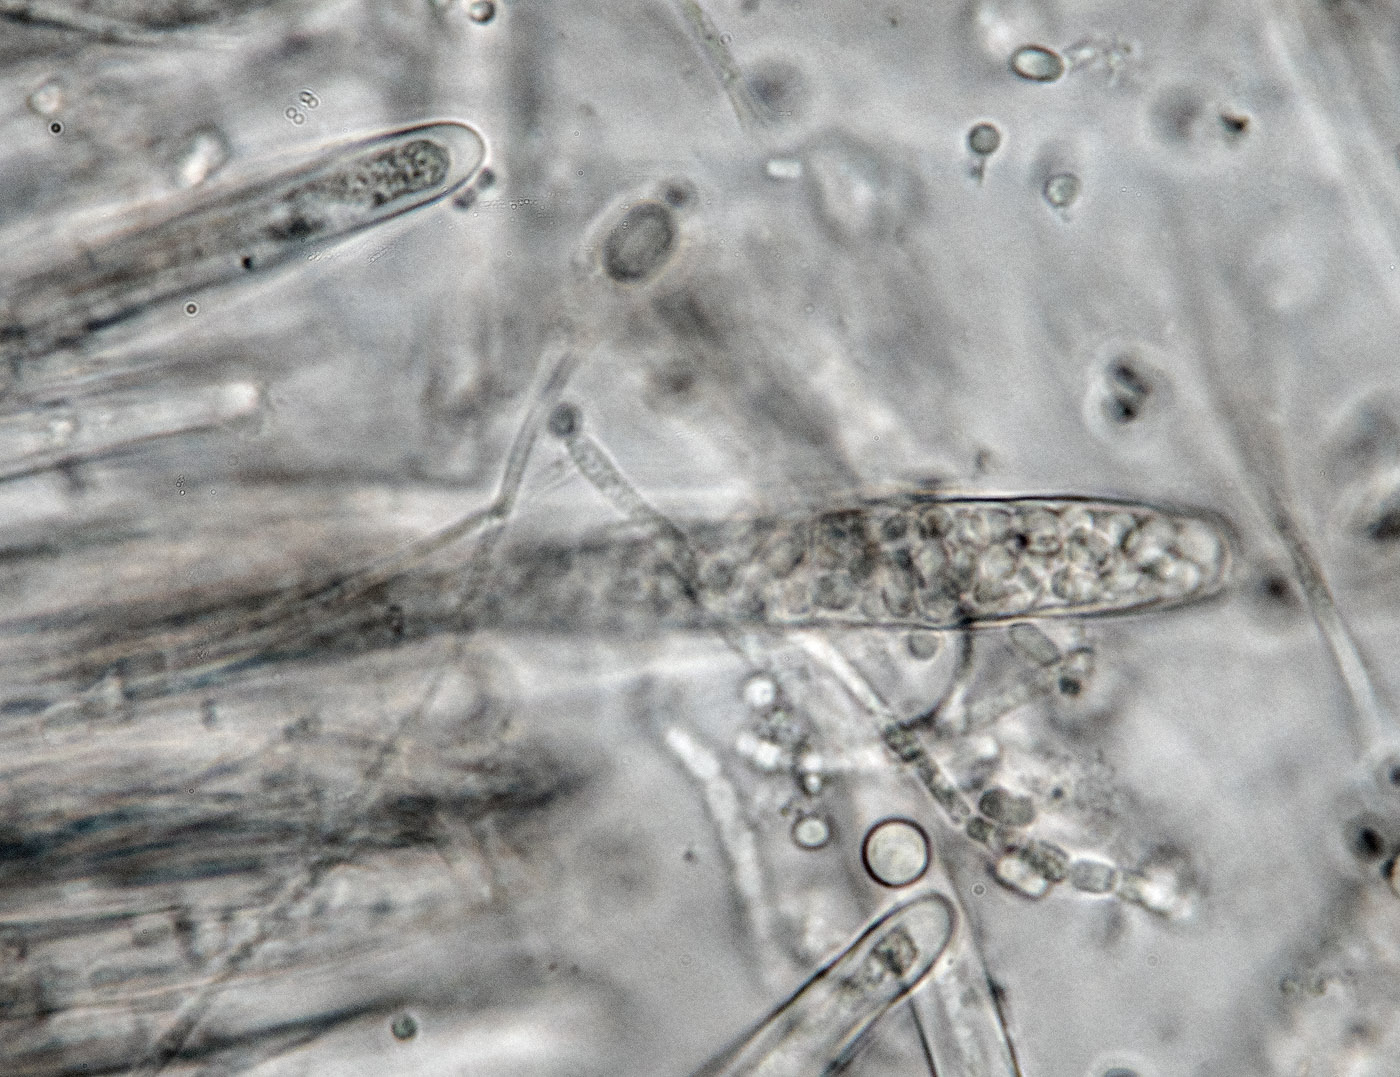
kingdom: Fungi
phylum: Ascomycota
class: Lecanoromycetes
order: Ostropales
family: Stictidaceae
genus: Schizoxylon
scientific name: Schizoxylon
